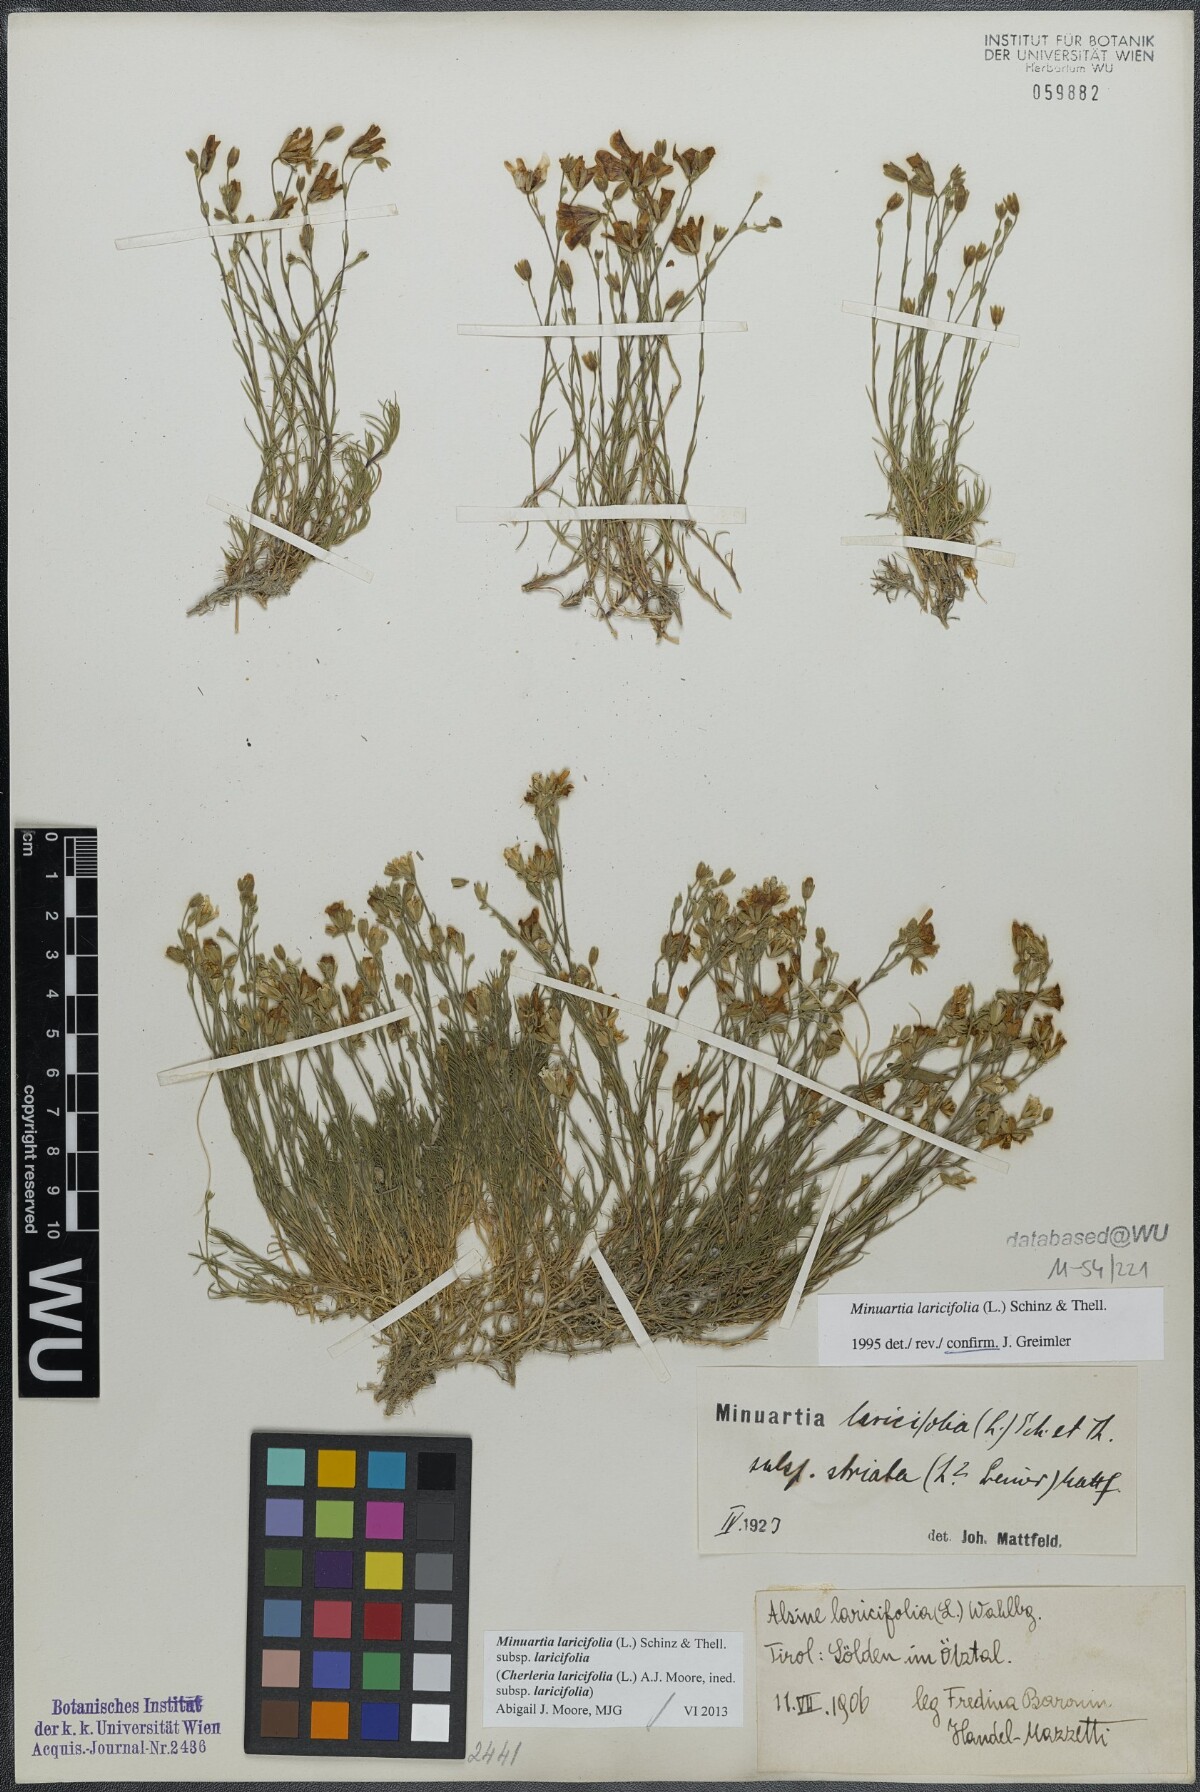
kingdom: Plantae
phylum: Tracheophyta
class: Magnoliopsida
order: Caryophyllales
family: Caryophyllaceae
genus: Cherleria
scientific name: Cherleria laricifolia
